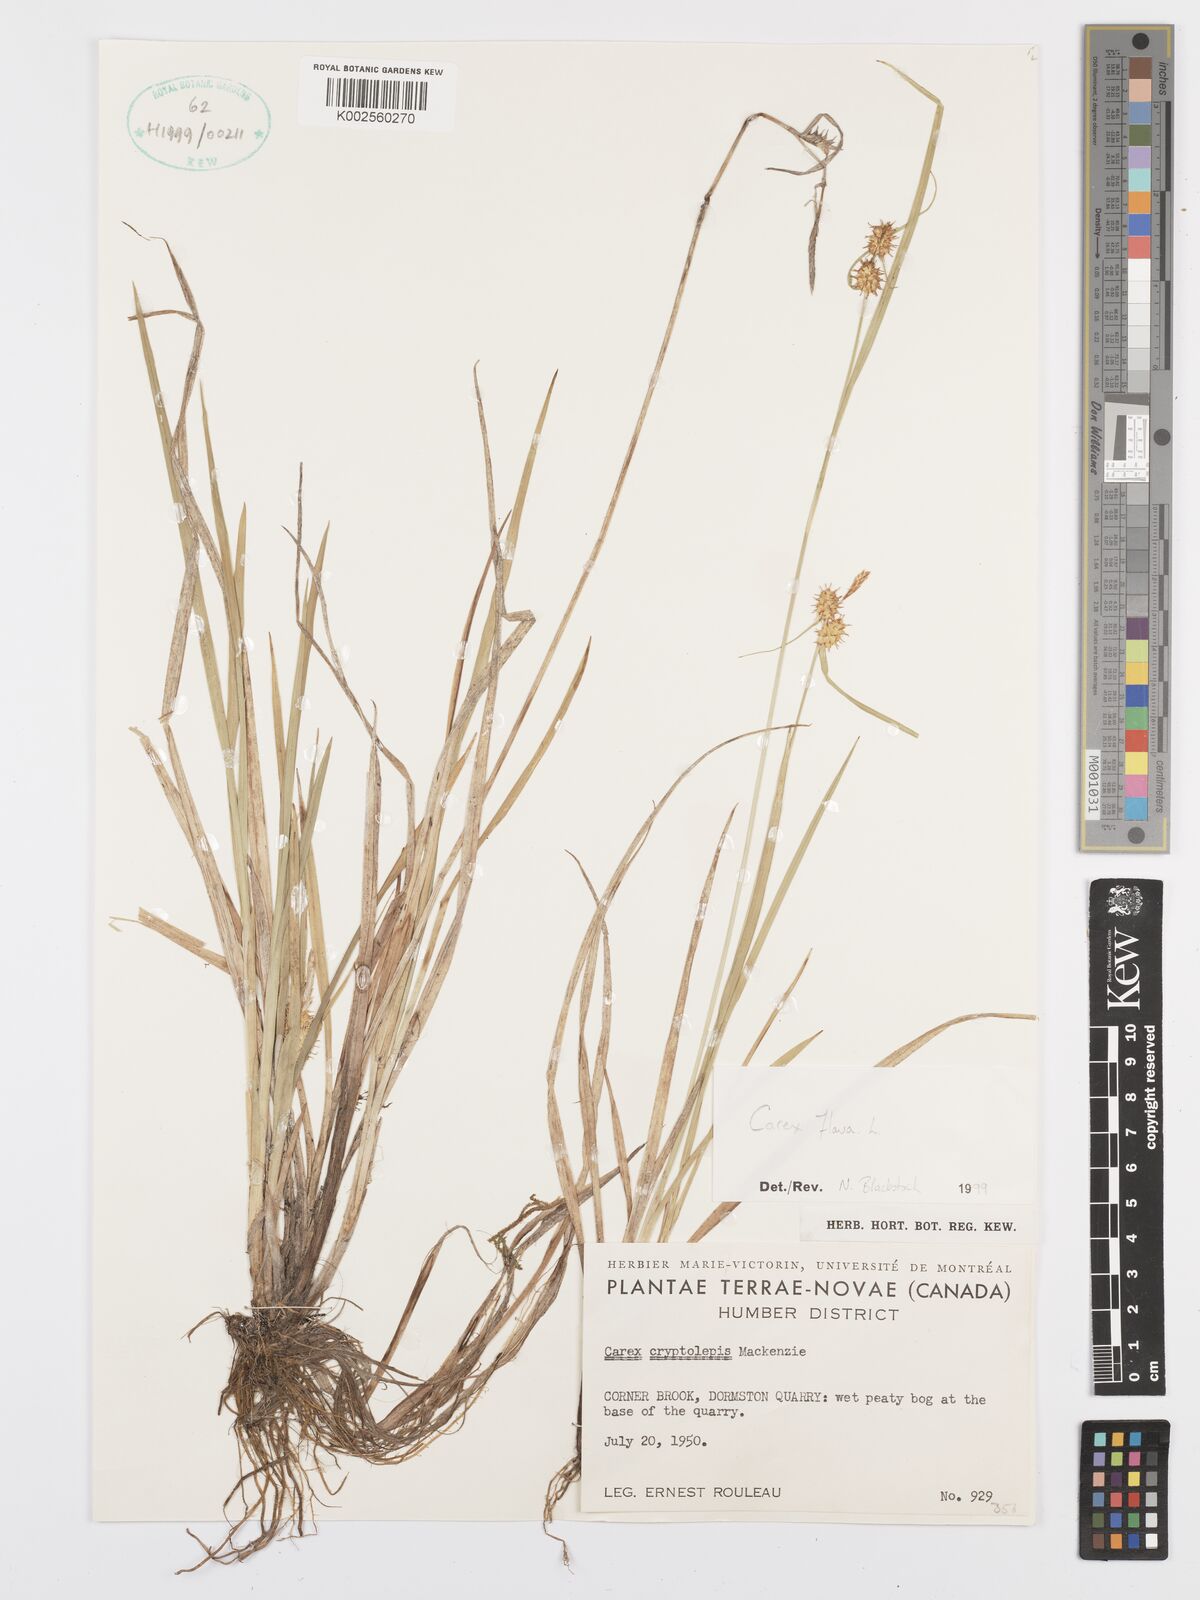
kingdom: Plantae
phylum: Tracheophyta
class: Liliopsida
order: Poales
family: Cyperaceae
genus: Carex
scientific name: Carex flava
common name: Large yellow-sedge
